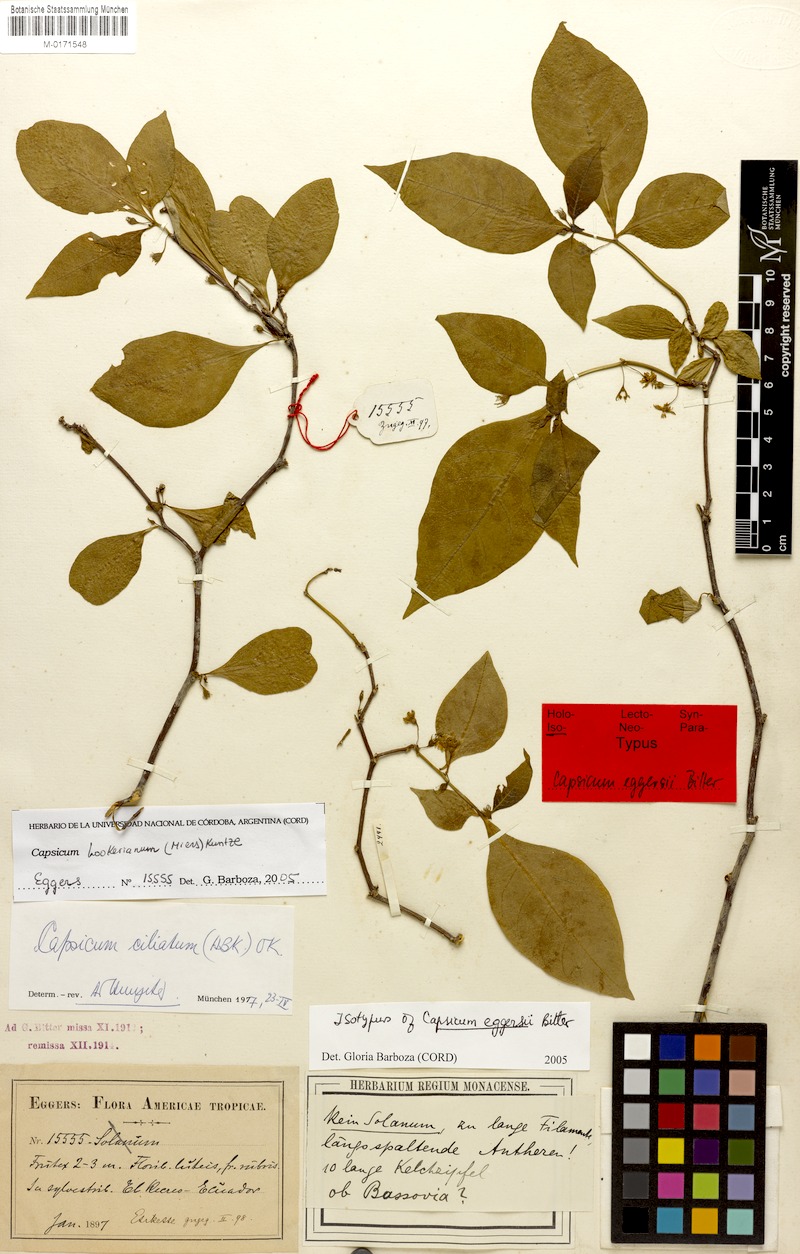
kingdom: Plantae
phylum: Tracheophyta
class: Magnoliopsida
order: Solanales
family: Solanaceae
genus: Capsicum
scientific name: Capsicum hookerianum
